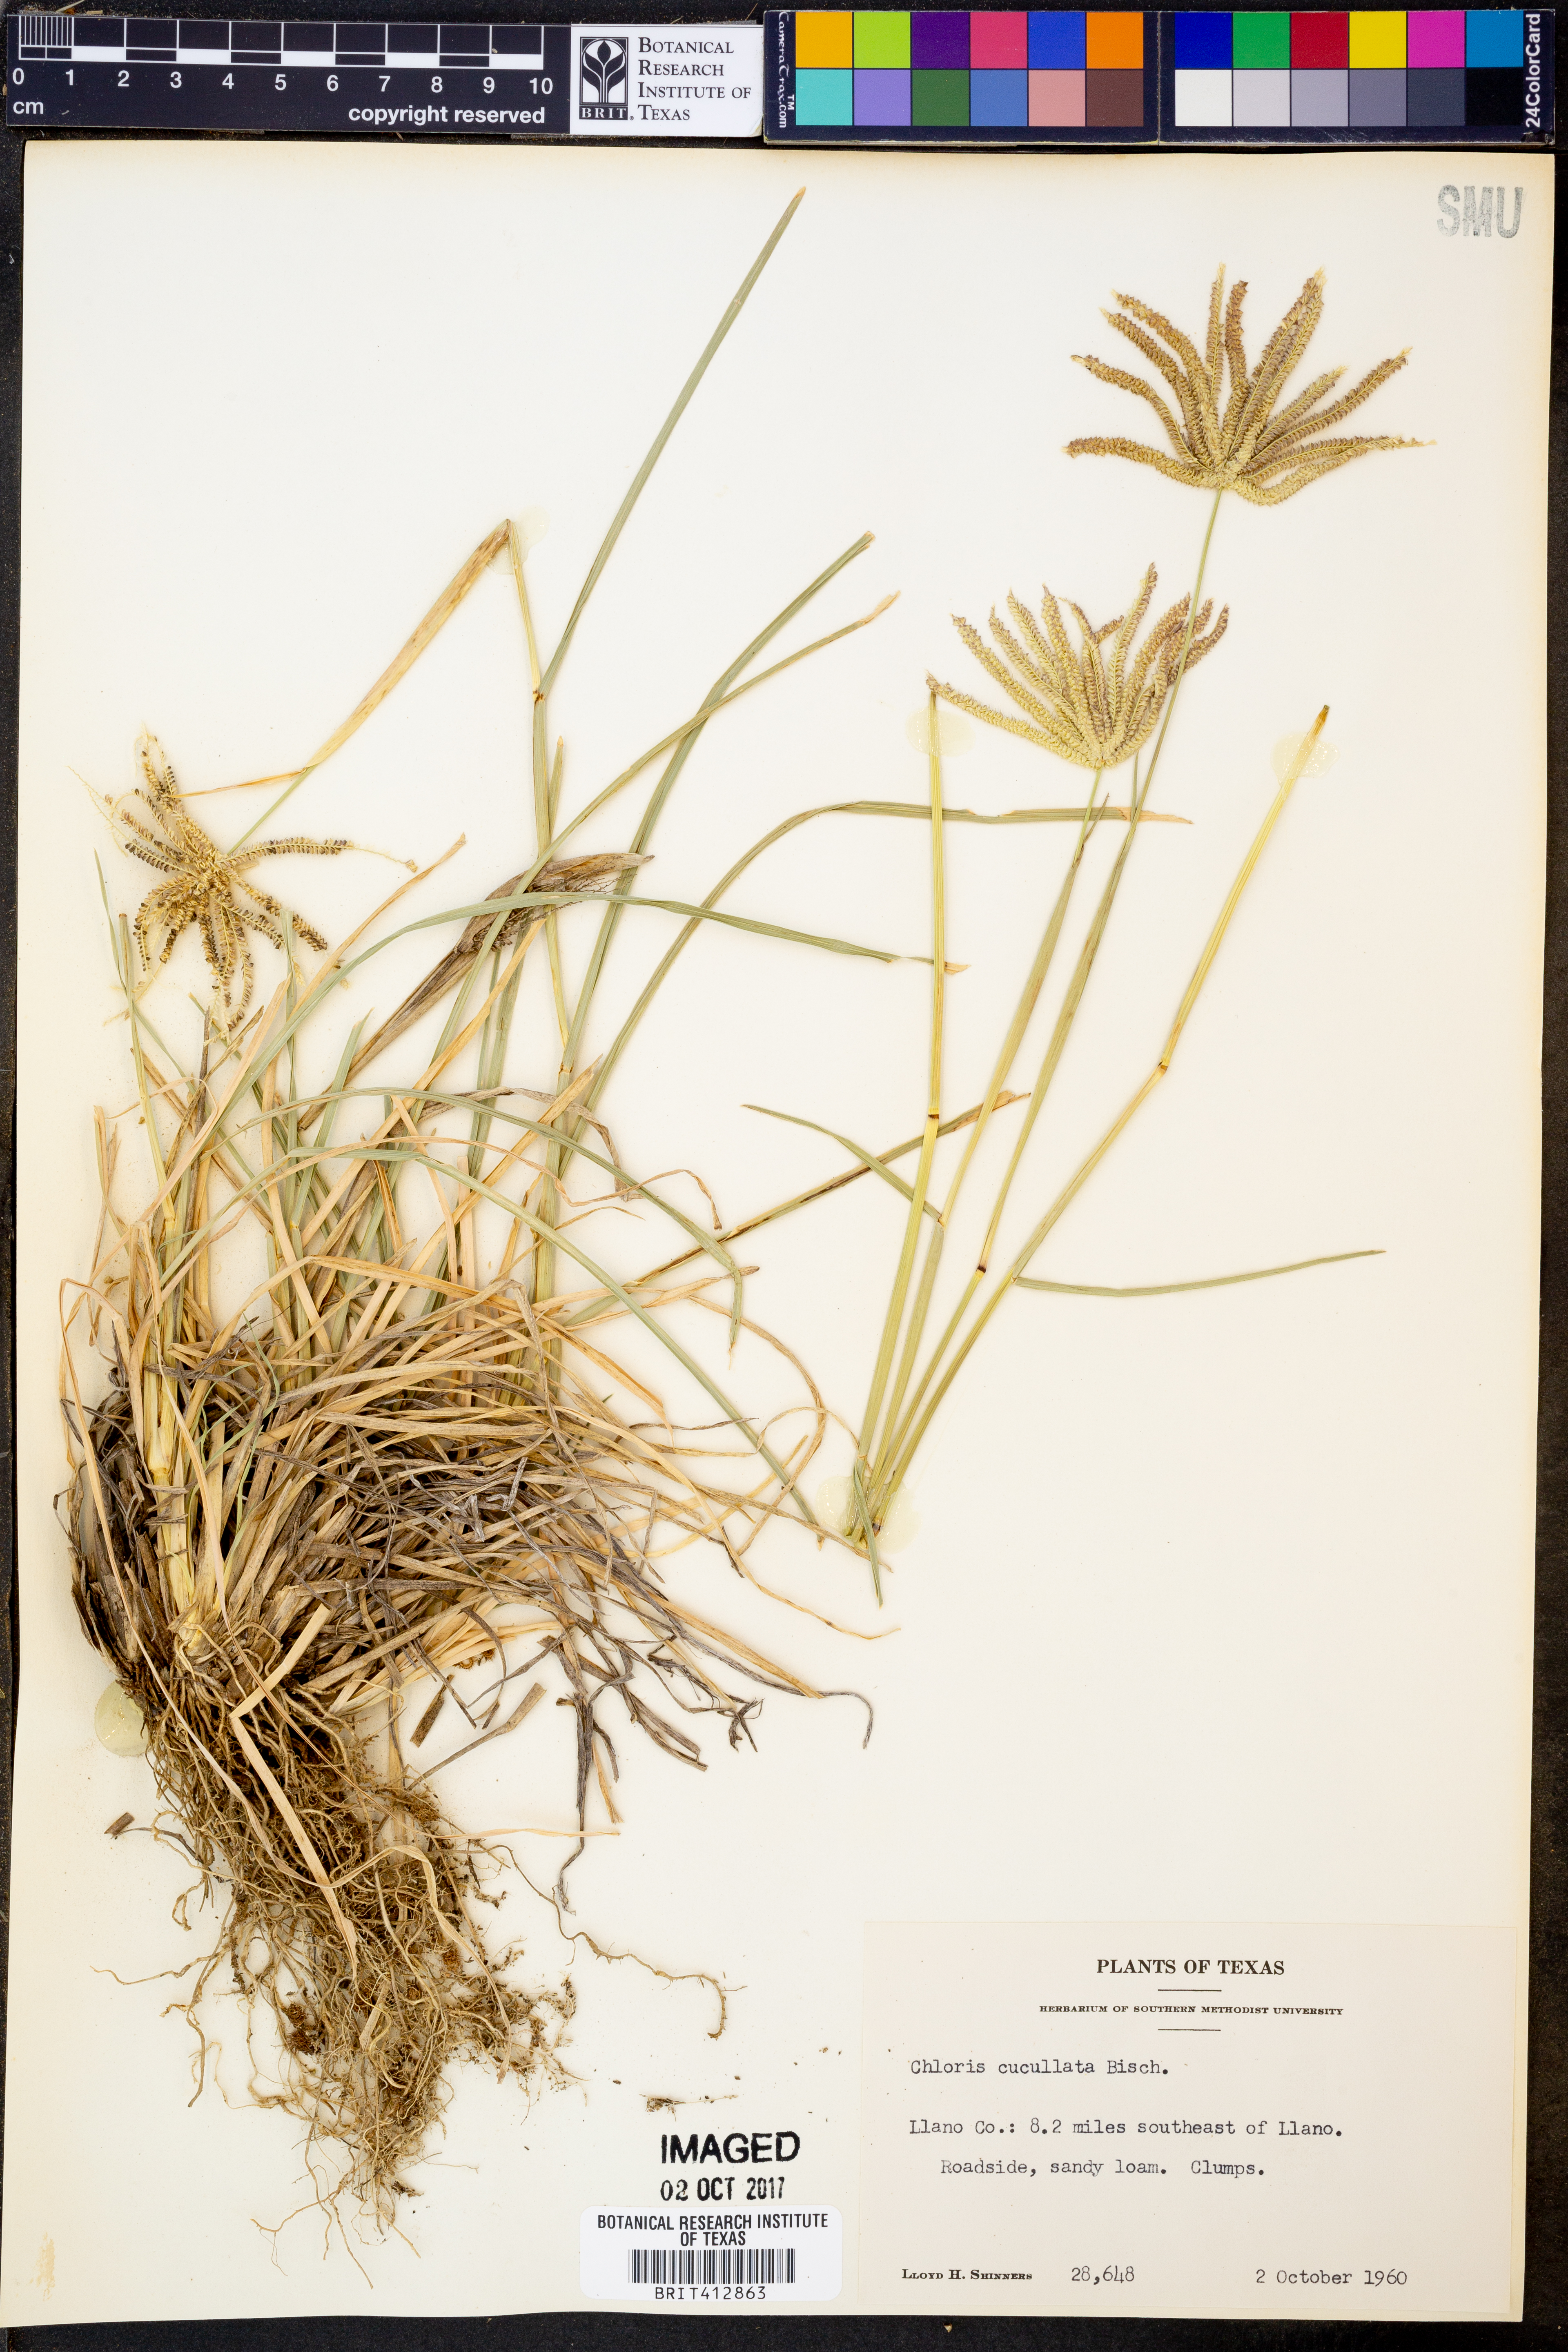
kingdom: Plantae
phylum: Tracheophyta
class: Liliopsida
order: Poales
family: Poaceae
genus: Chloris
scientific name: Chloris cucullata
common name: Hooded windmill grass
